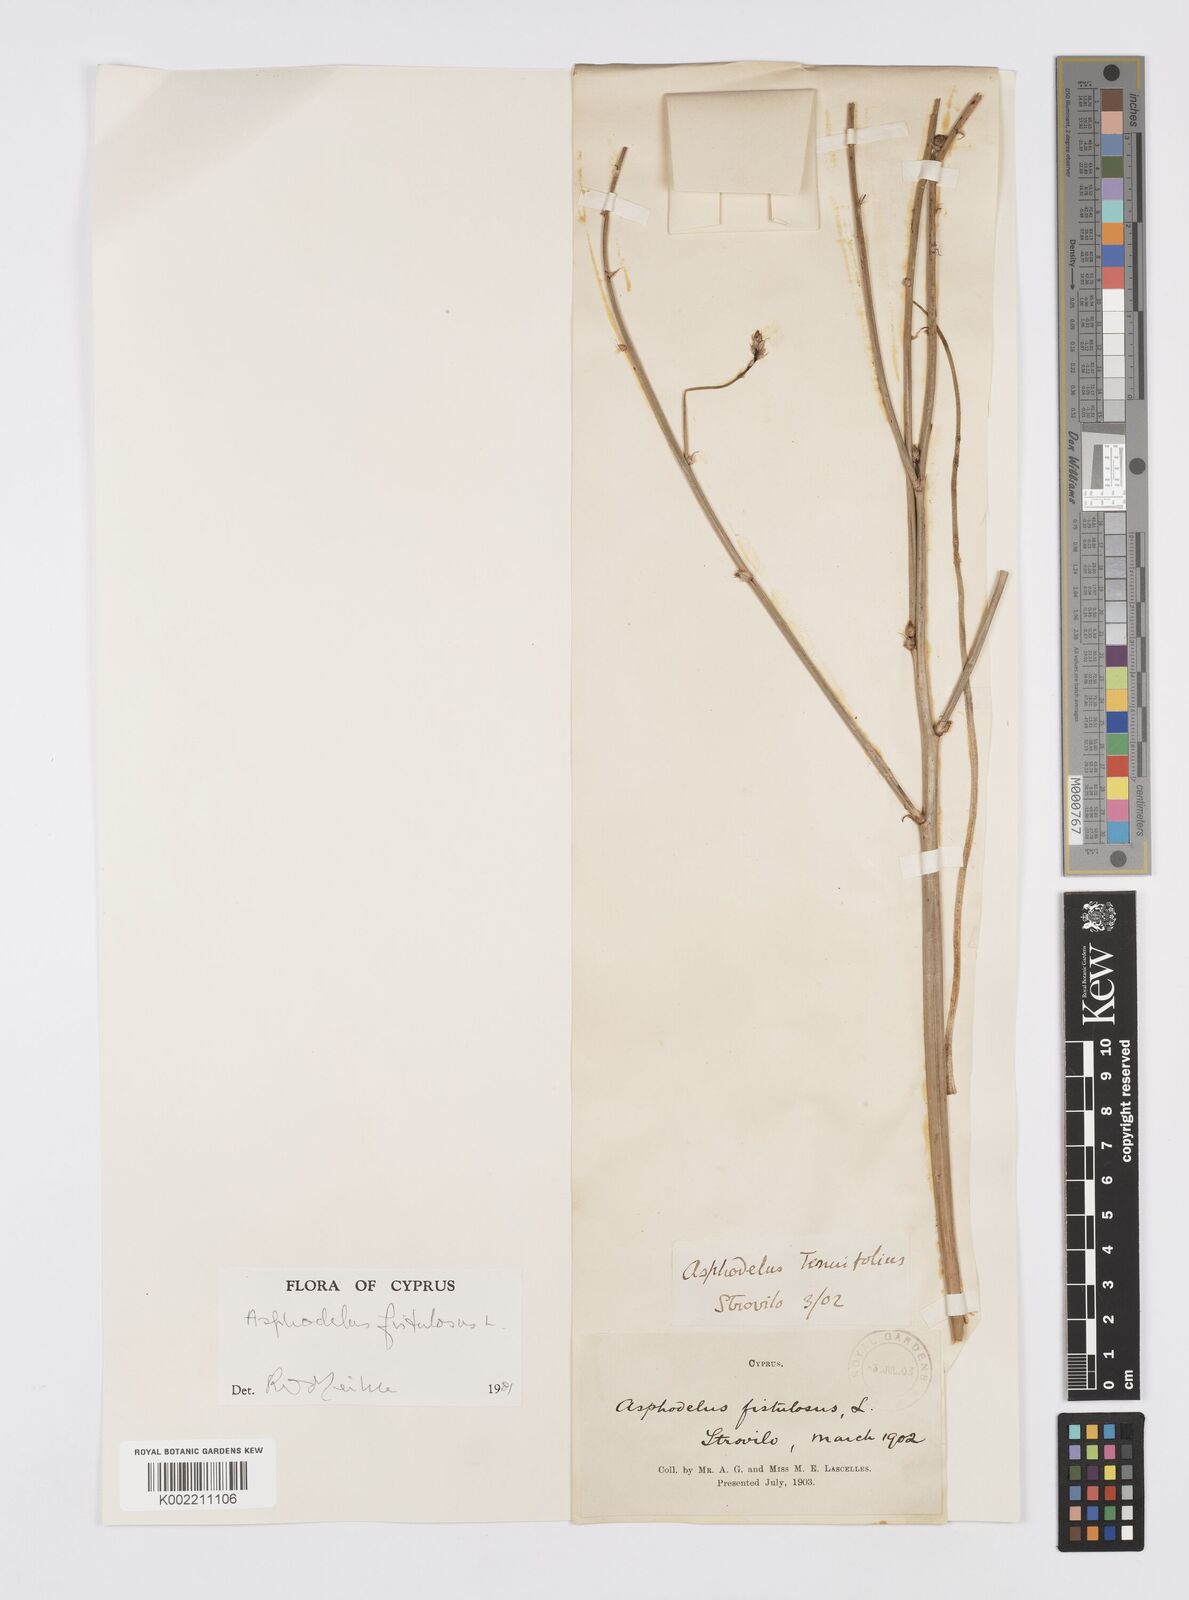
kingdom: Plantae
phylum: Tracheophyta
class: Liliopsida
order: Asparagales
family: Asphodelaceae
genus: Asphodelus
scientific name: Asphodelus fistulosus
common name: Onionweed
